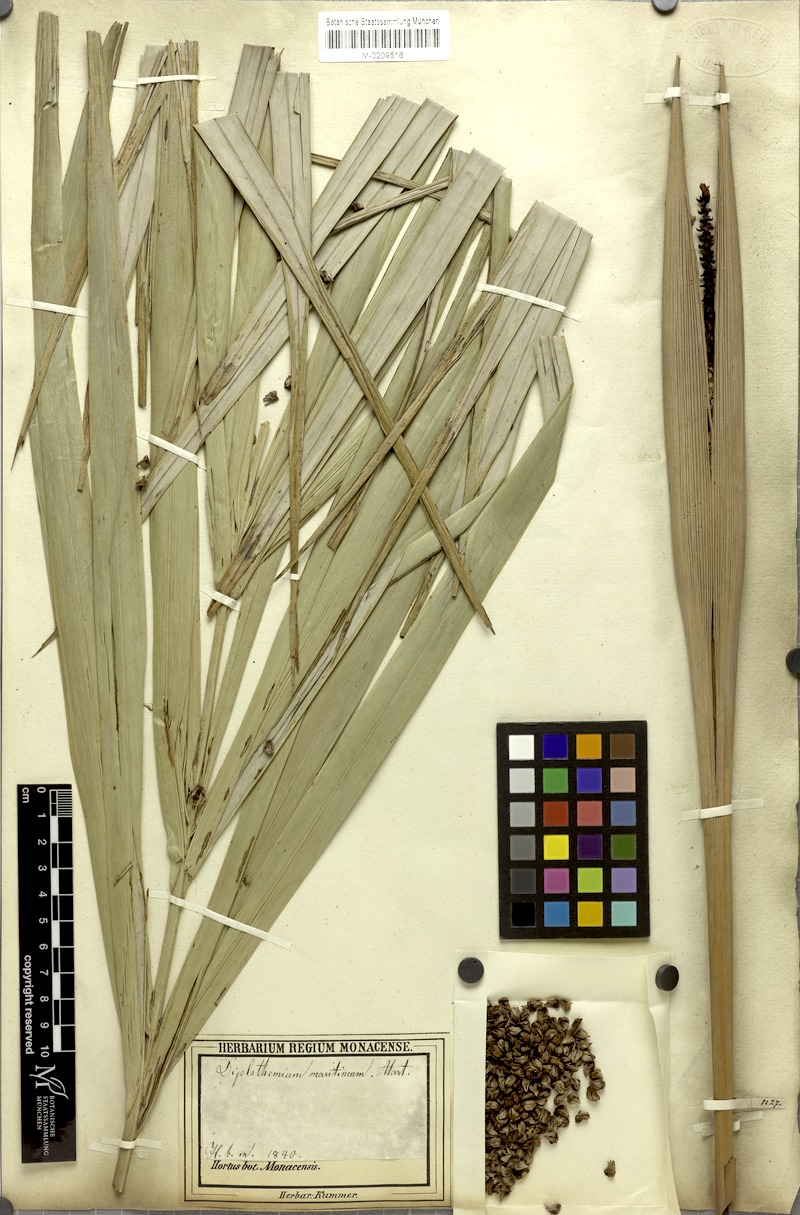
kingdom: Plantae
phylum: Tracheophyta
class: Liliopsida
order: Arecales
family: Arecaceae
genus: Allagoptera
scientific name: Allagoptera arenaria
